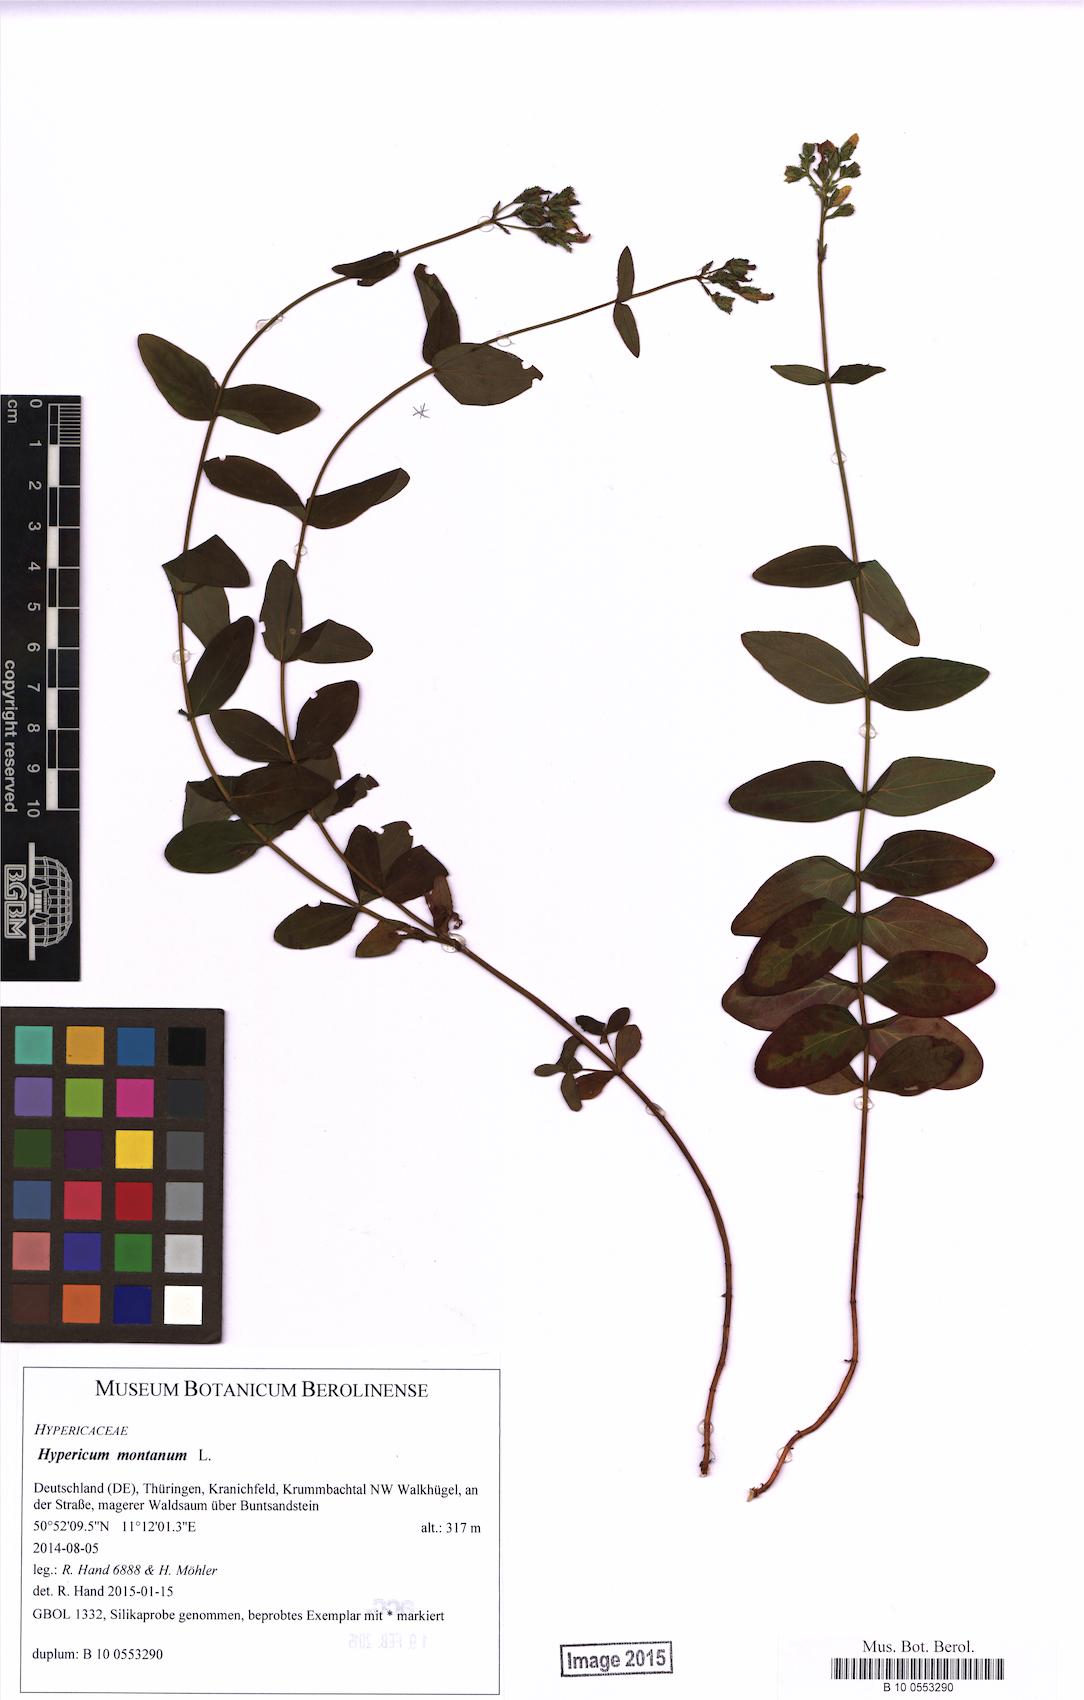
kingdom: Plantae
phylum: Tracheophyta
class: Magnoliopsida
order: Malpighiales
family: Hypericaceae
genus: Hypericum
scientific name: Hypericum montanum
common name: Pale st. john's-wort
